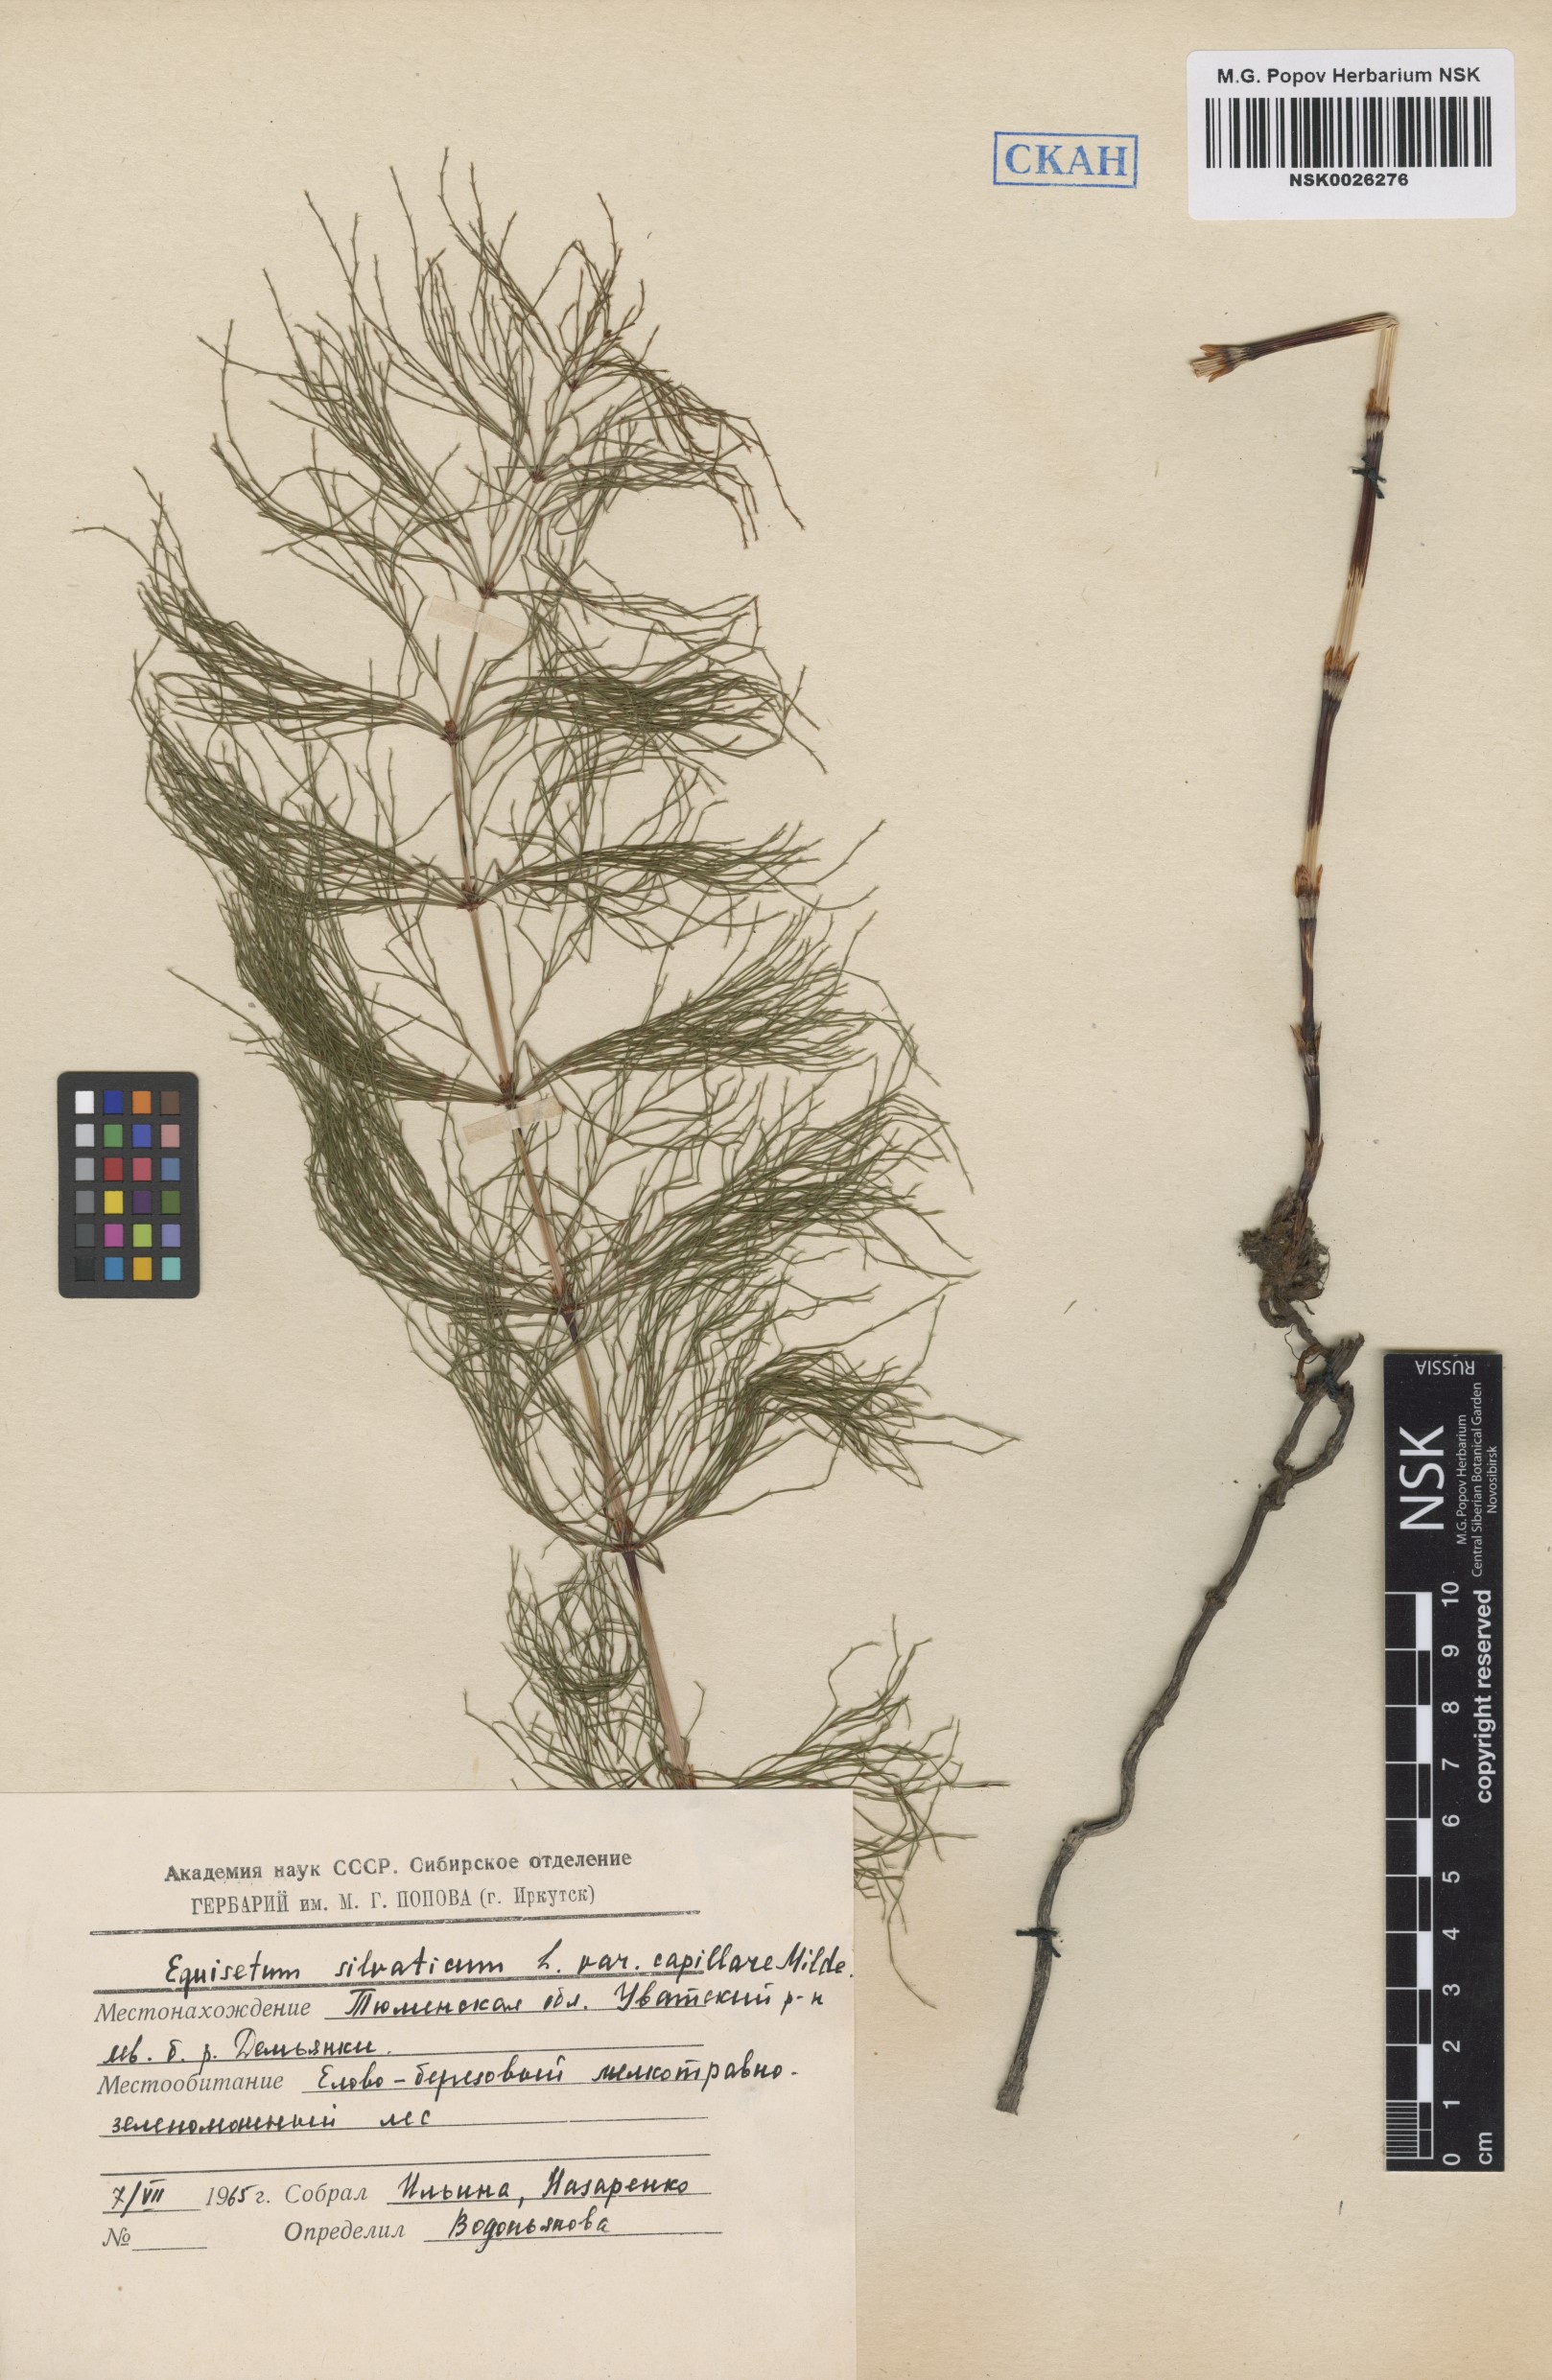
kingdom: Plantae
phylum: Tracheophyta
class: Polypodiopsida
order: Equisetales
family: Equisetaceae
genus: Equisetum
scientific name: Equisetum sylvaticum
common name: Wood horsetail
